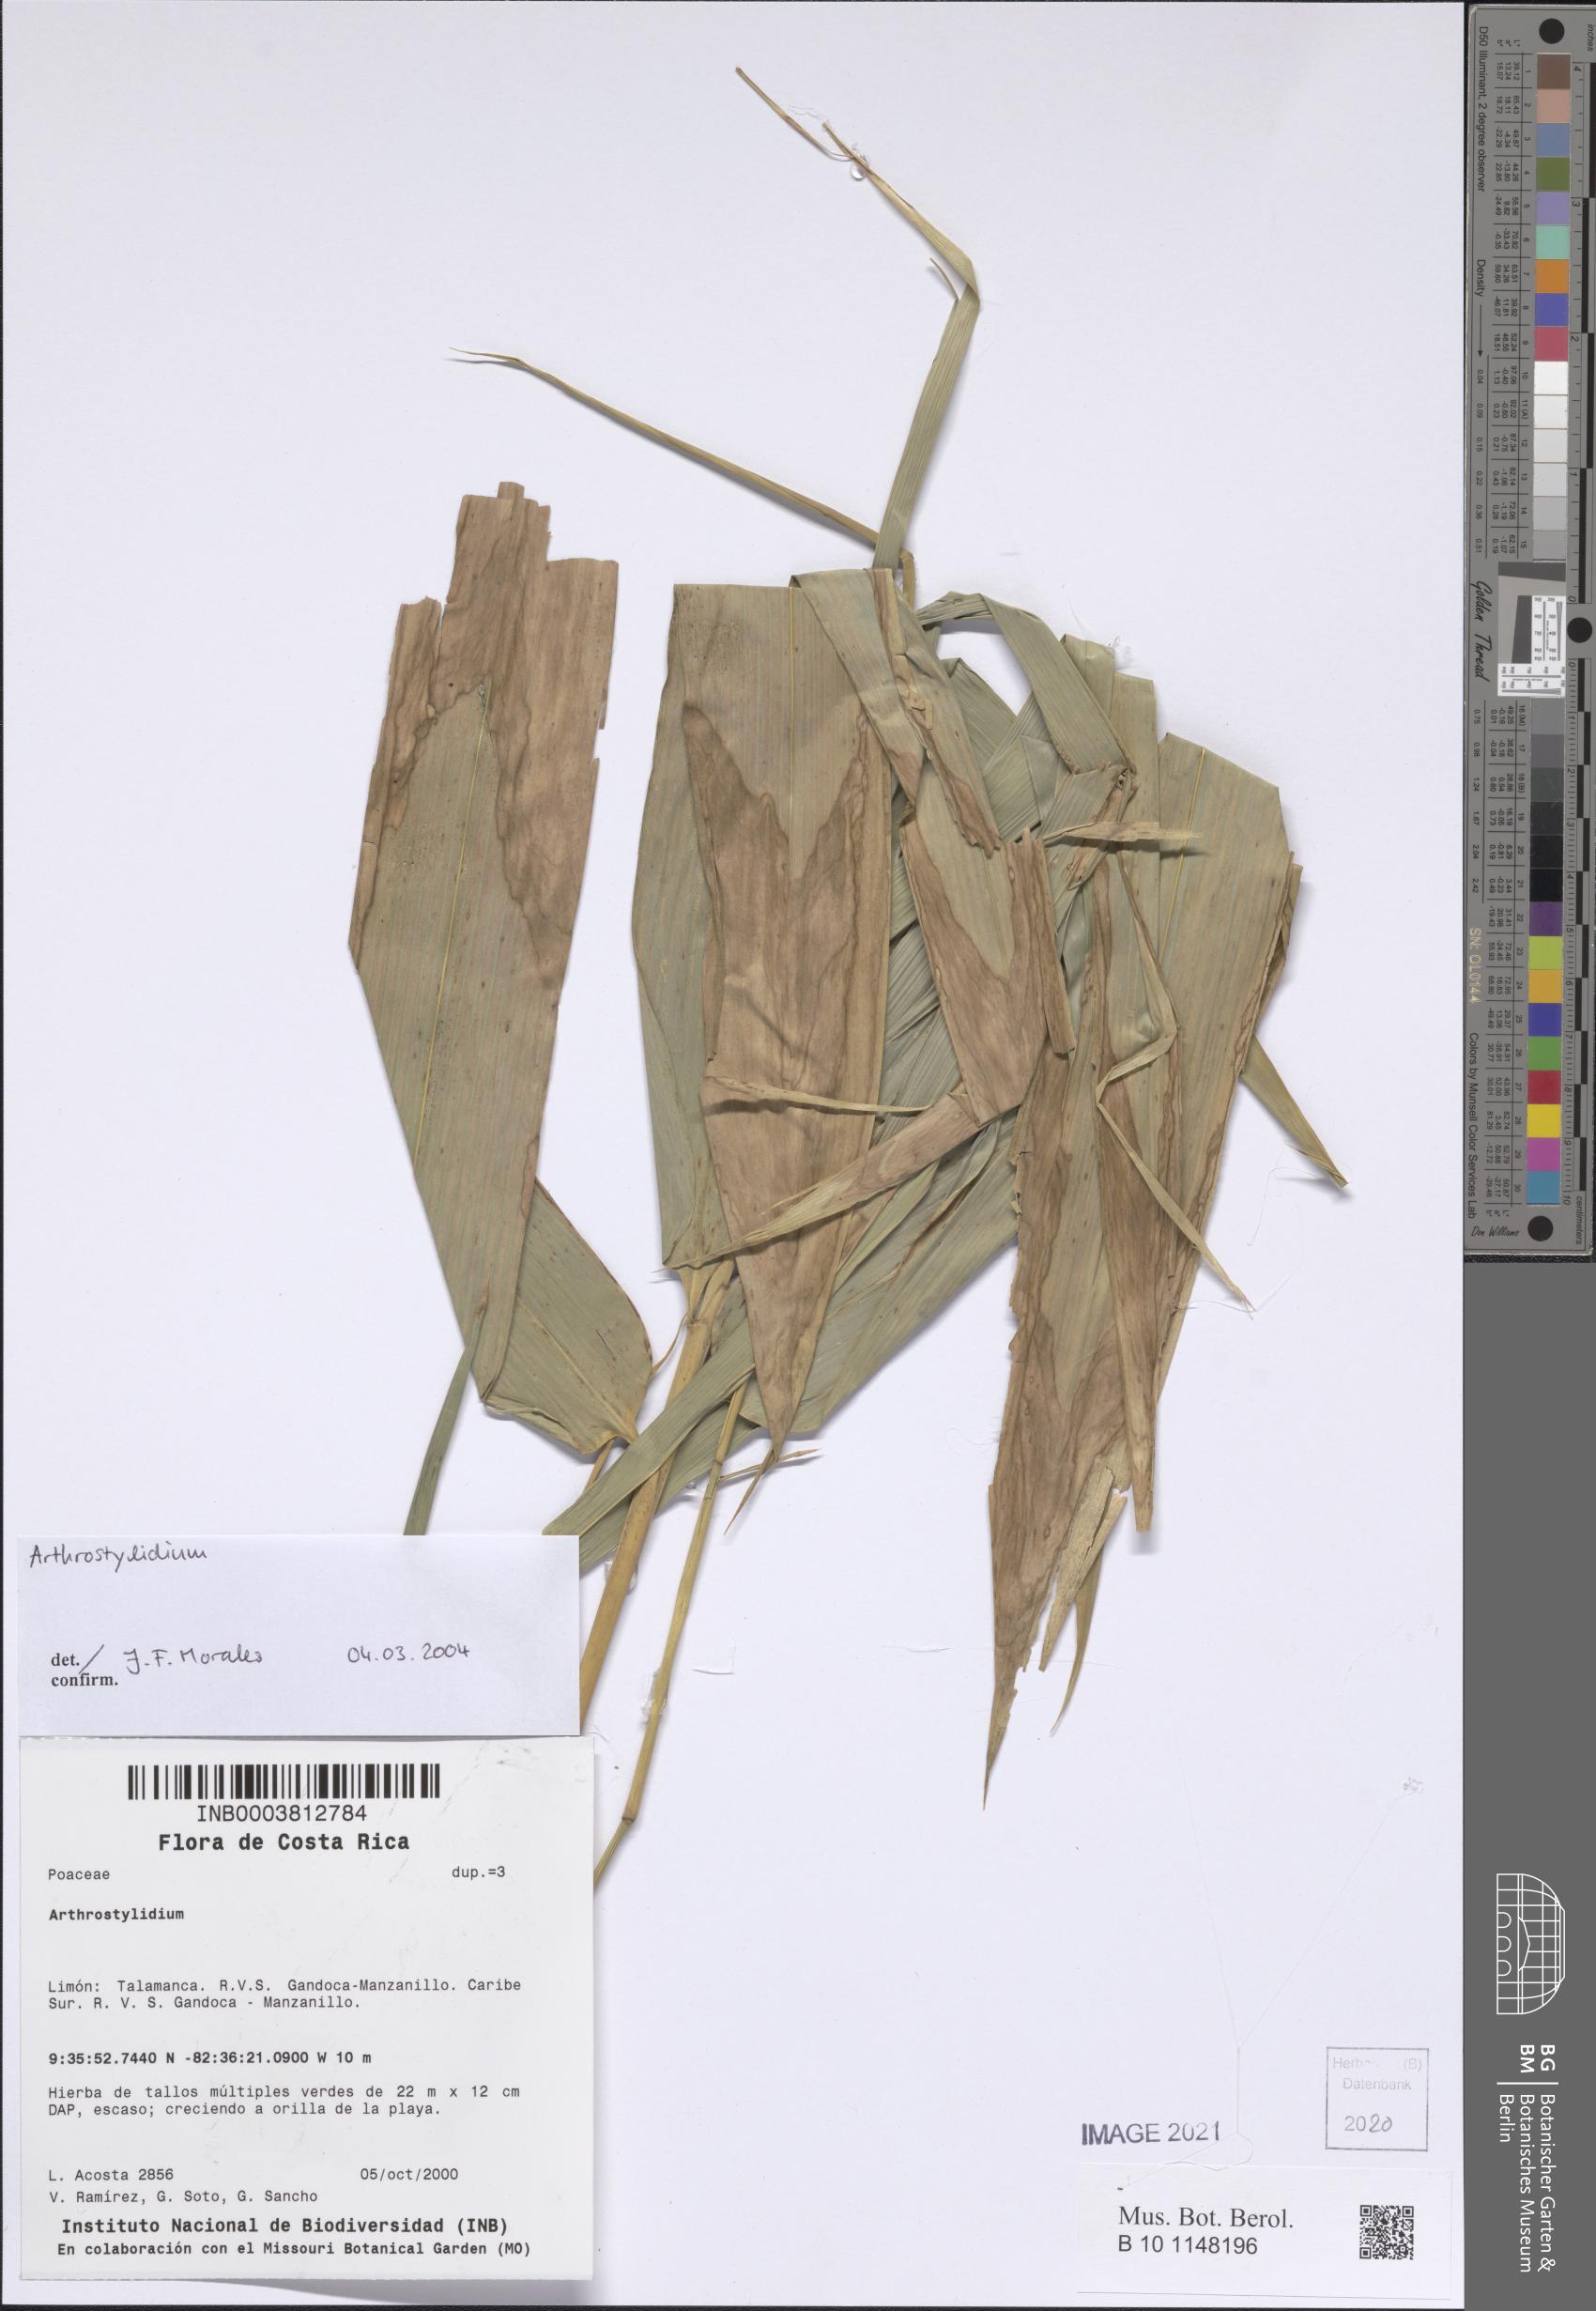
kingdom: Plantae
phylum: Tracheophyta
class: Liliopsida
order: Poales
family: Poaceae
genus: Arthrostylidium
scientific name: Arthrostylidium
